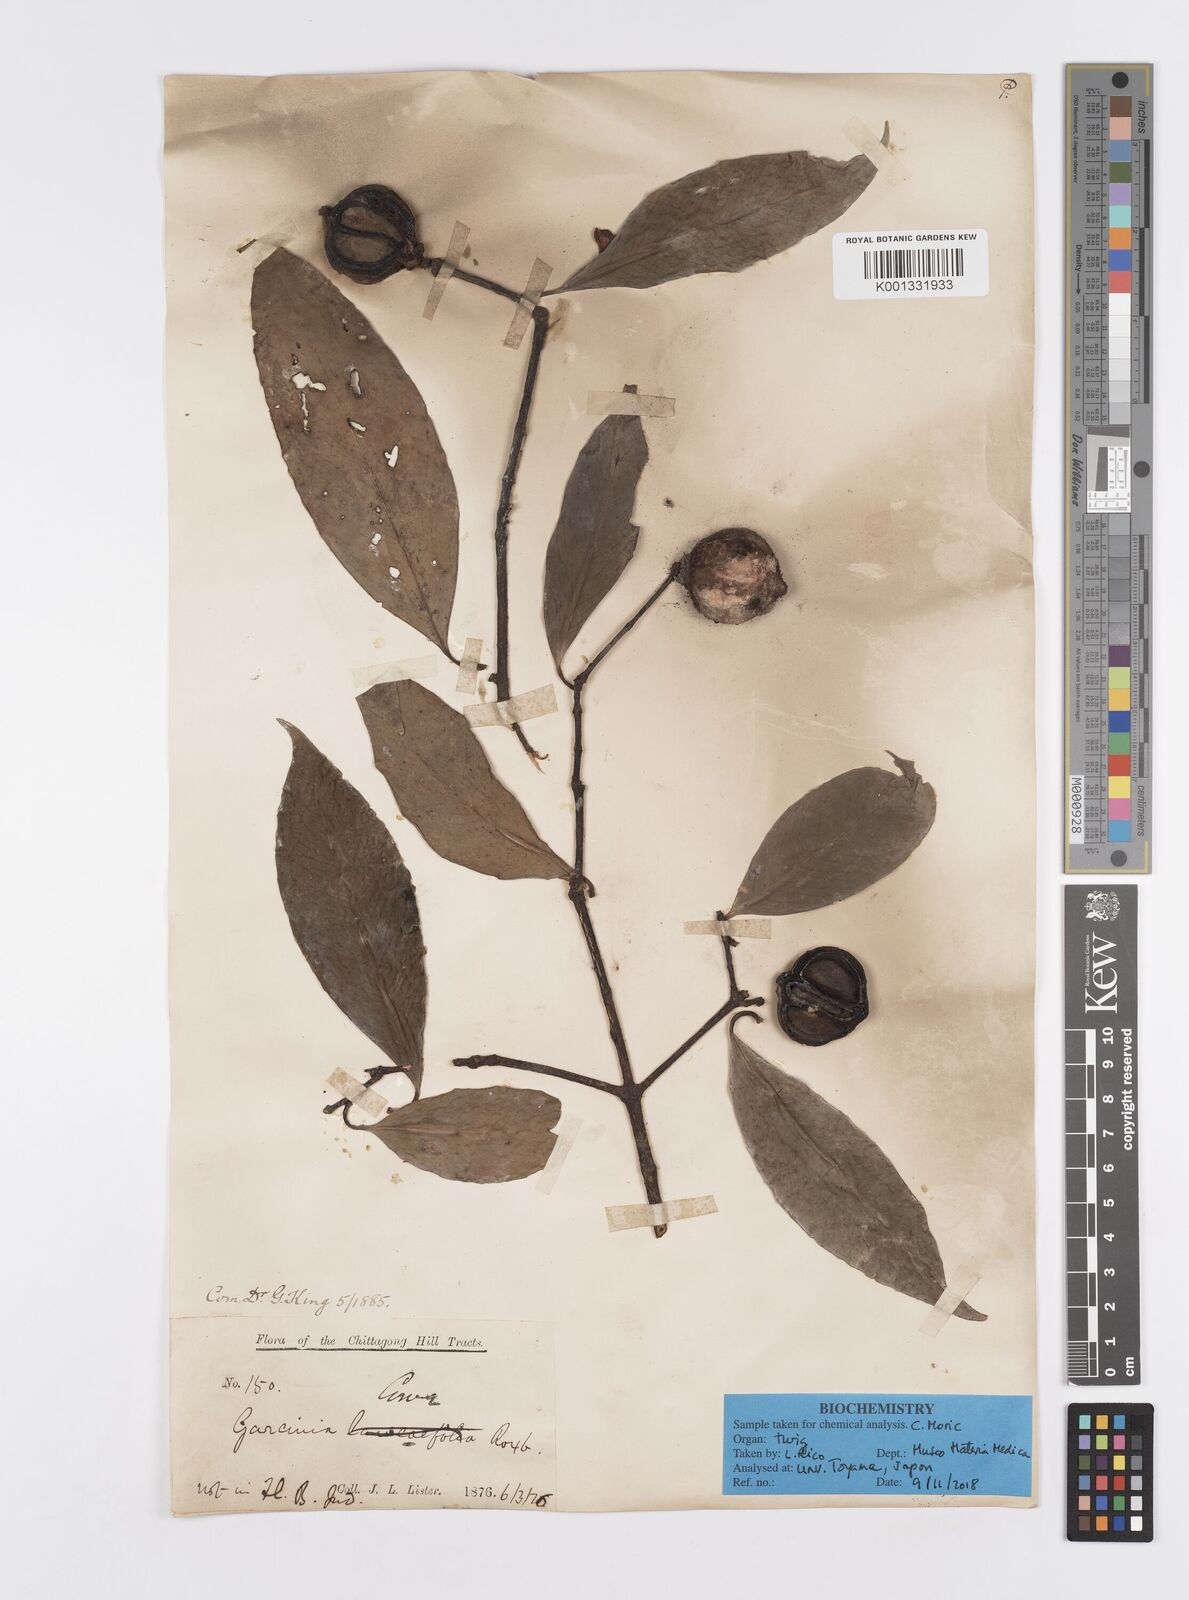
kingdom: Plantae
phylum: Tracheophyta
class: Magnoliopsida
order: Malpighiales
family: Clusiaceae
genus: Garcinia
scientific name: Garcinia
